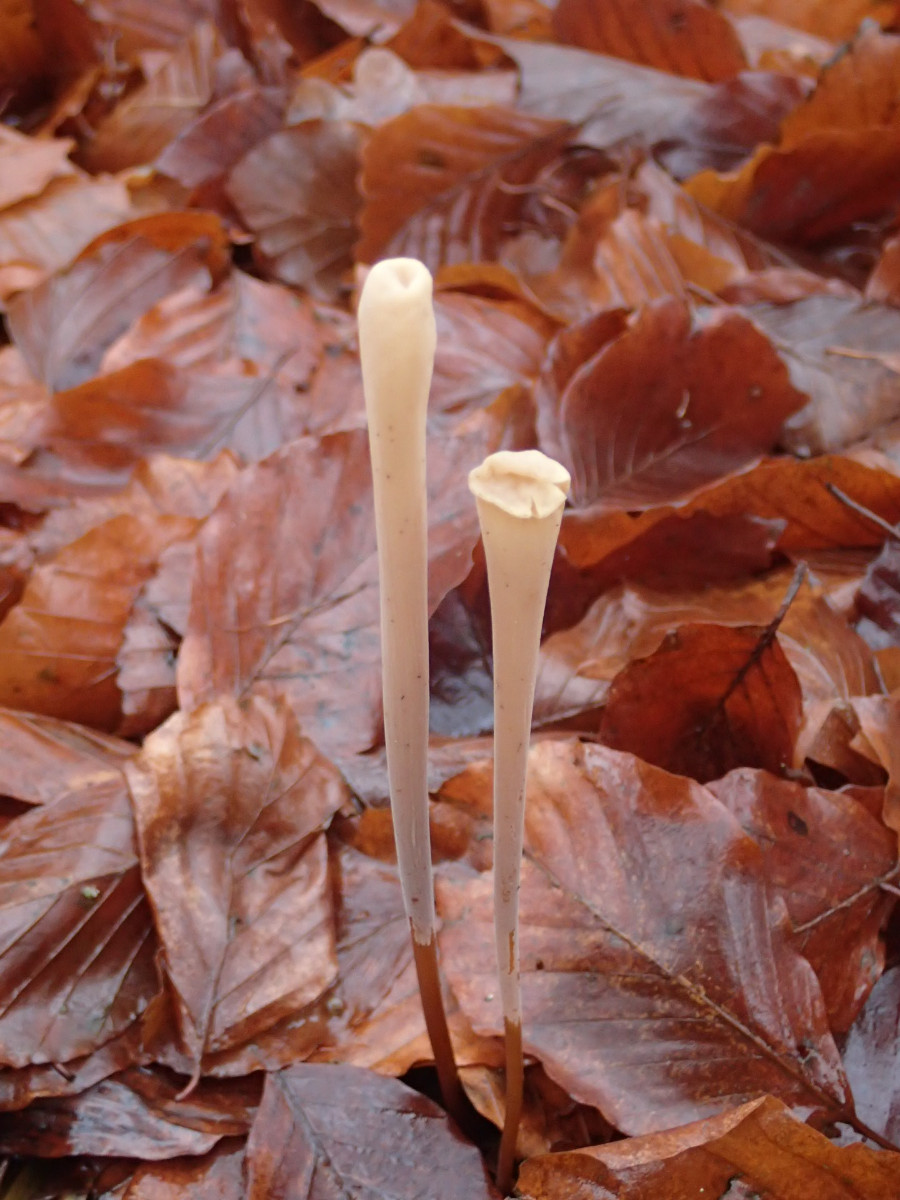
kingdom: Fungi
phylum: Basidiomycota
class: Agaricomycetes
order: Agaricales
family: Typhulaceae
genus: Typhula
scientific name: Typhula fistulosa
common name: pibet rørkølle
